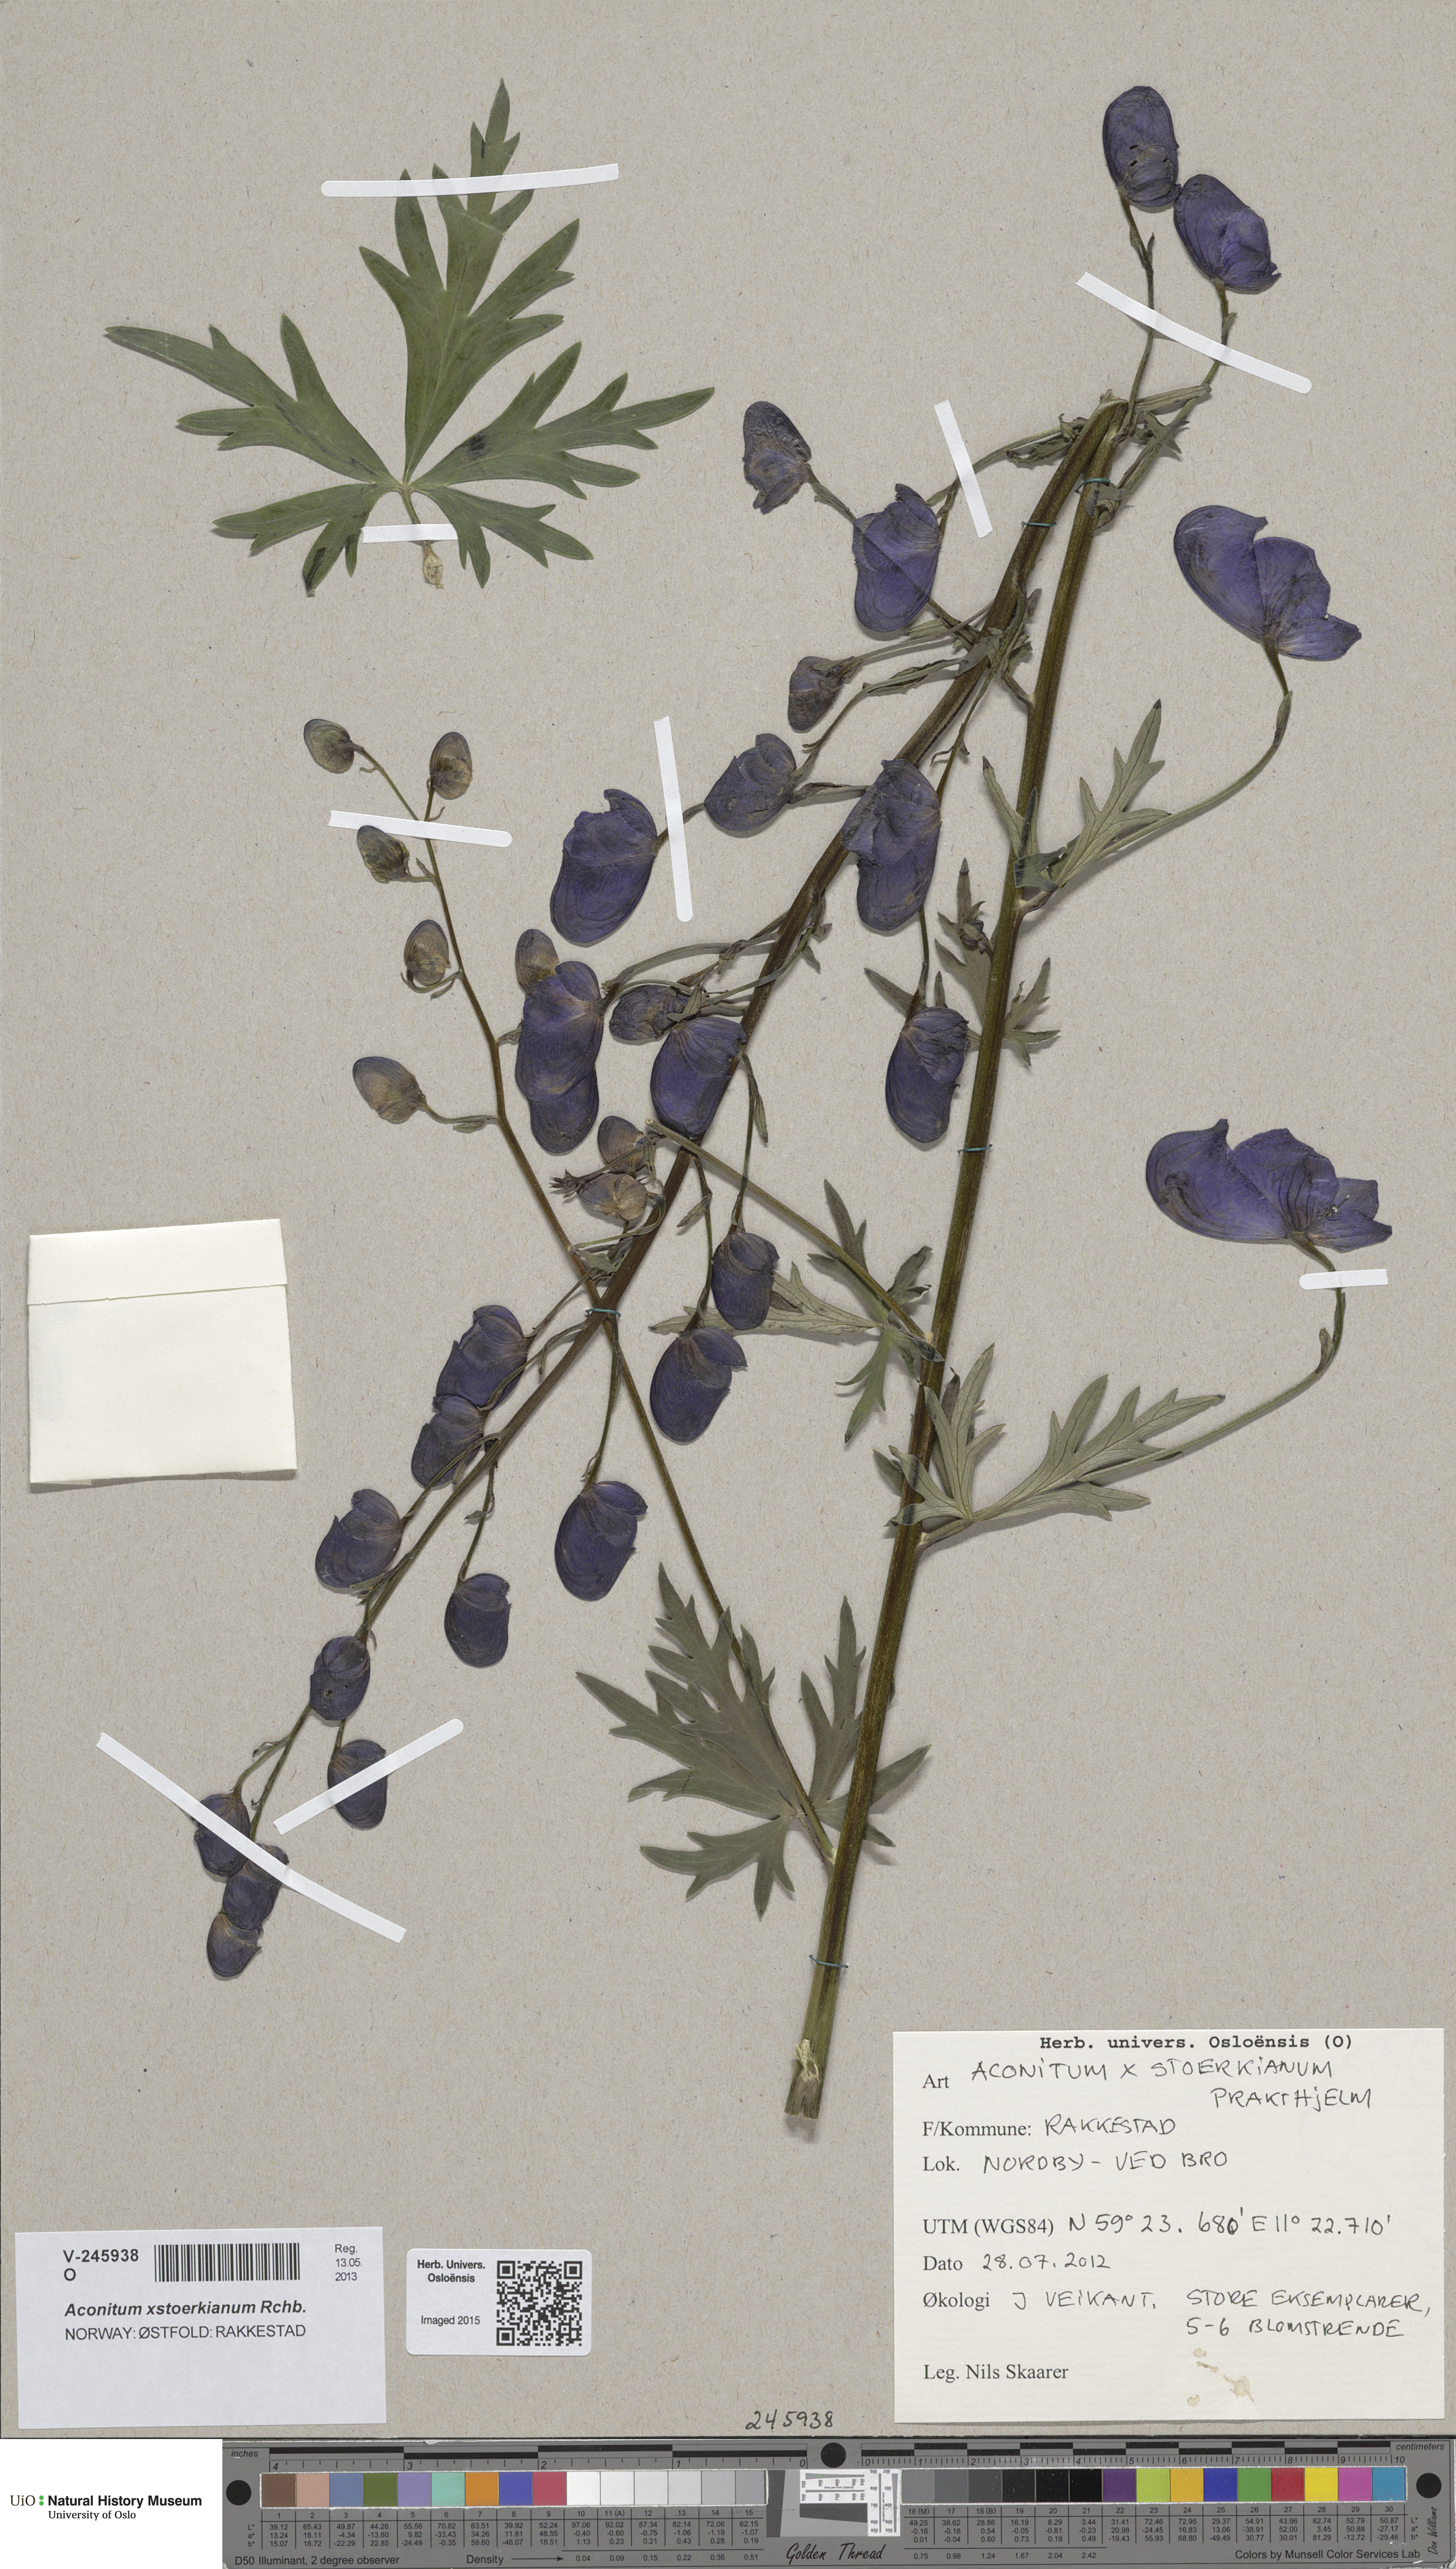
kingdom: Plantae
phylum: Tracheophyta
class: Magnoliopsida
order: Ranunculales
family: Ranunculaceae
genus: Aconitum
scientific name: Aconitum cammarum
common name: Hybrid monk's-hood
